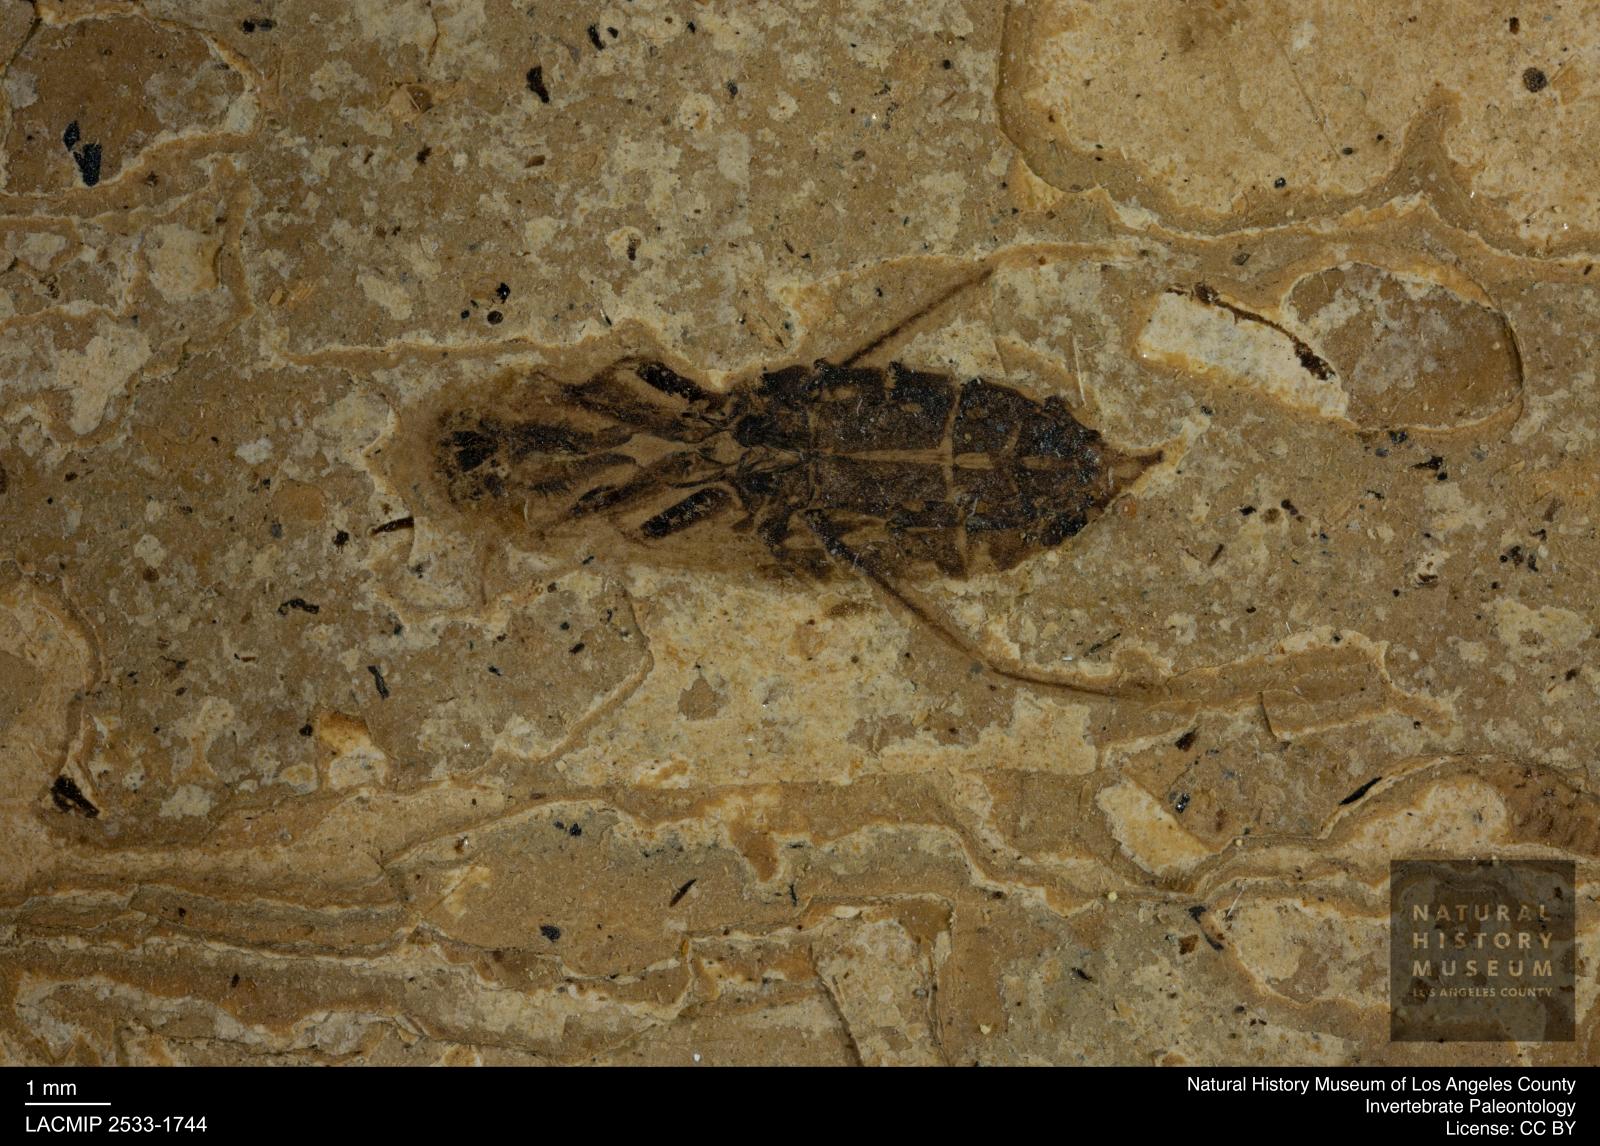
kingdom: Animalia
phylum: Arthropoda
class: Insecta
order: Hemiptera
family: Notonectidae
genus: Notonecta
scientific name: Notonecta
